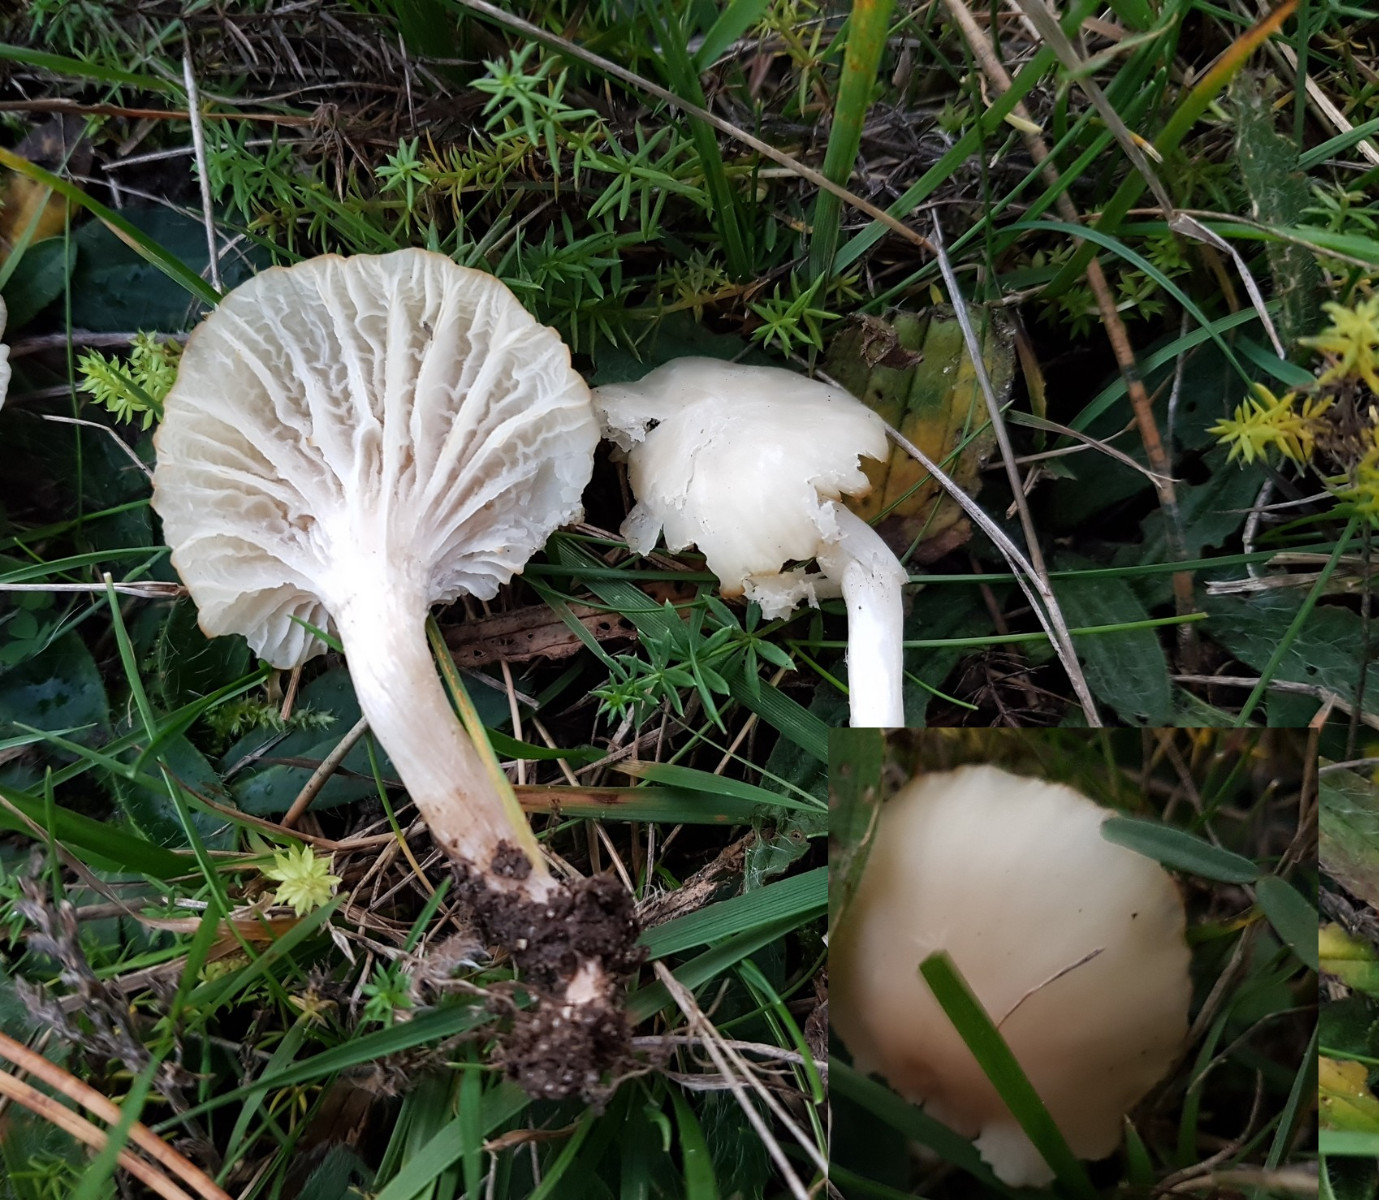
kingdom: Fungi
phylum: Basidiomycota
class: Agaricomycetes
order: Agaricales
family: Hygrophoraceae
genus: Cuphophyllus
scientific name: Cuphophyllus
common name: vokshat
